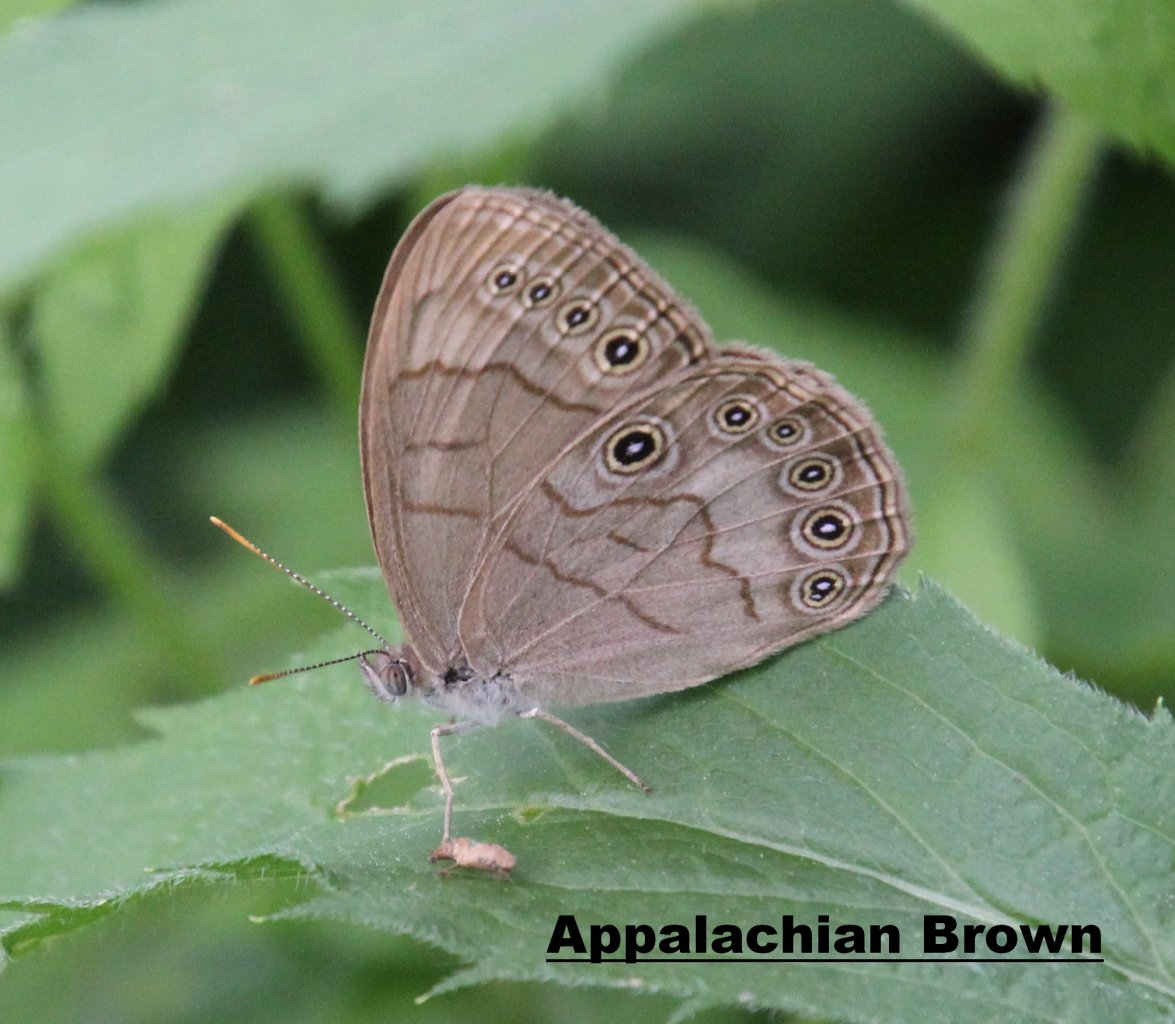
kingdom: Animalia
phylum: Arthropoda
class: Insecta
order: Lepidoptera
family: Nymphalidae
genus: Lethe
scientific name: Lethe eurydice
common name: Appalachian Eyed Brown
